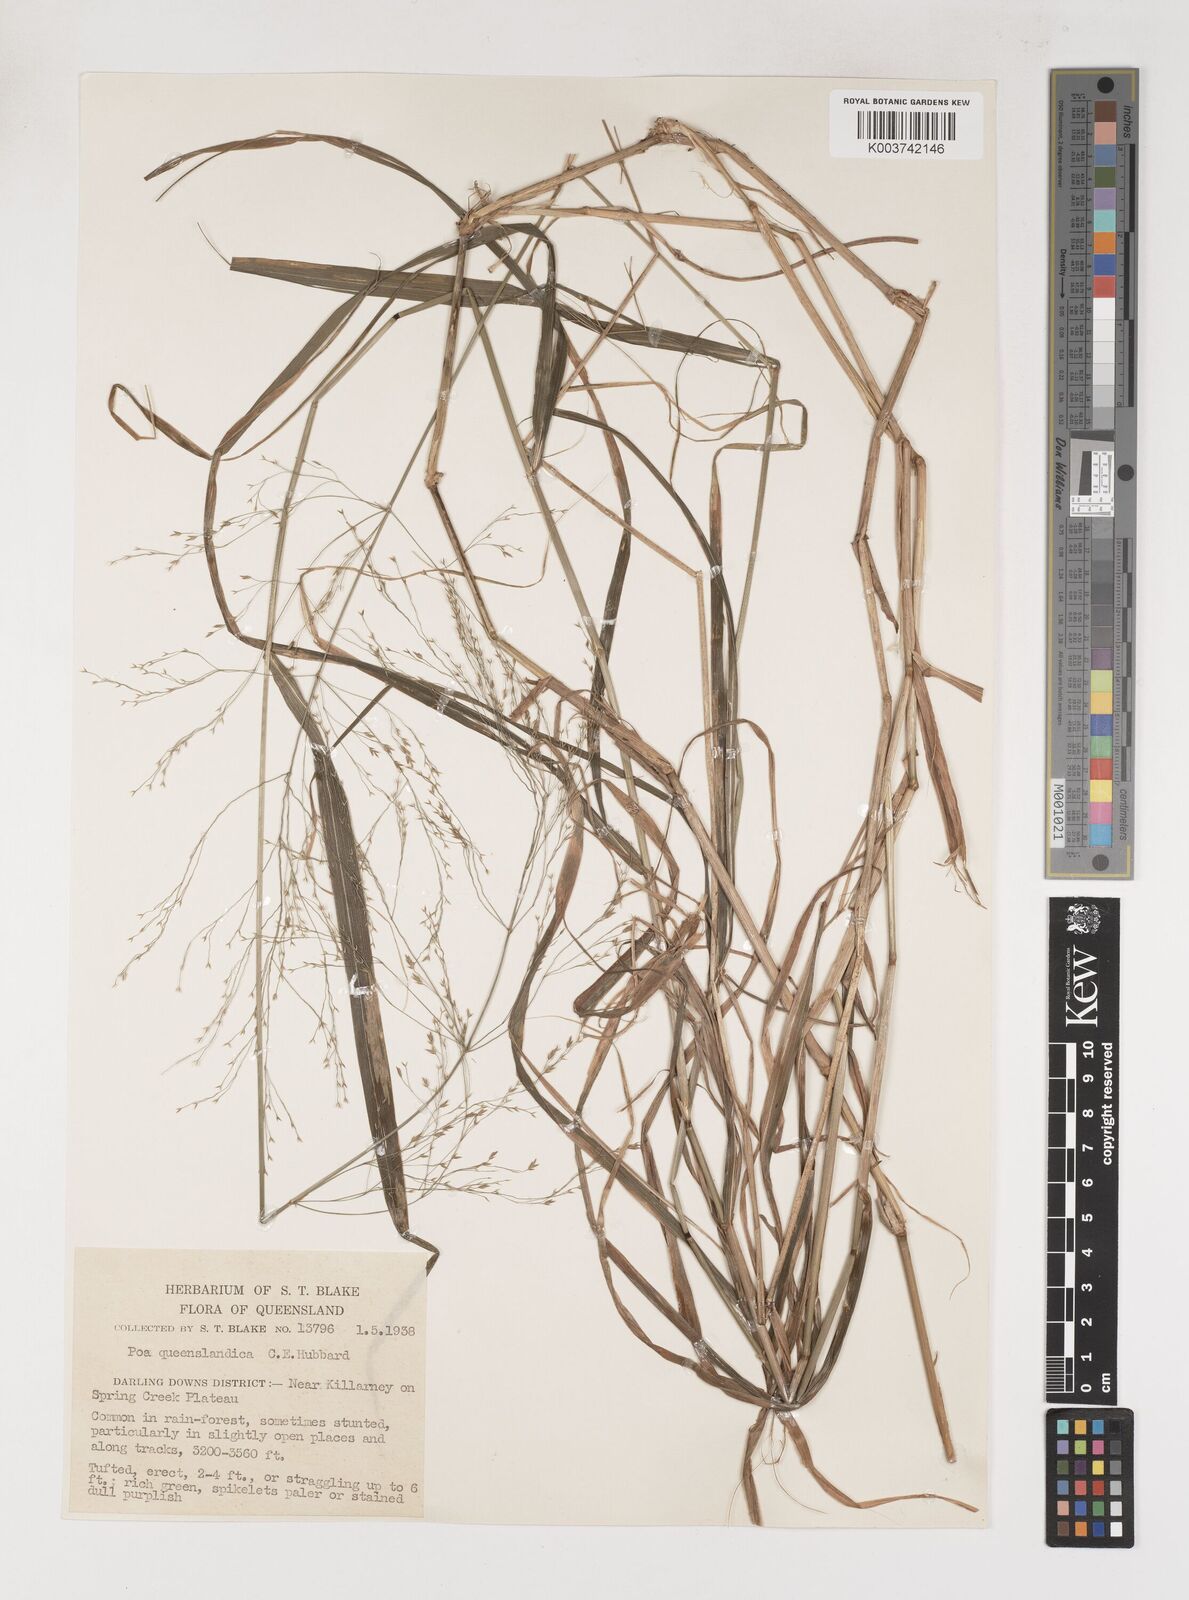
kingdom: Plantae
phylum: Tracheophyta
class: Liliopsida
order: Poales
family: Poaceae
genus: Sylvipoa
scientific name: Sylvipoa queenslandica
